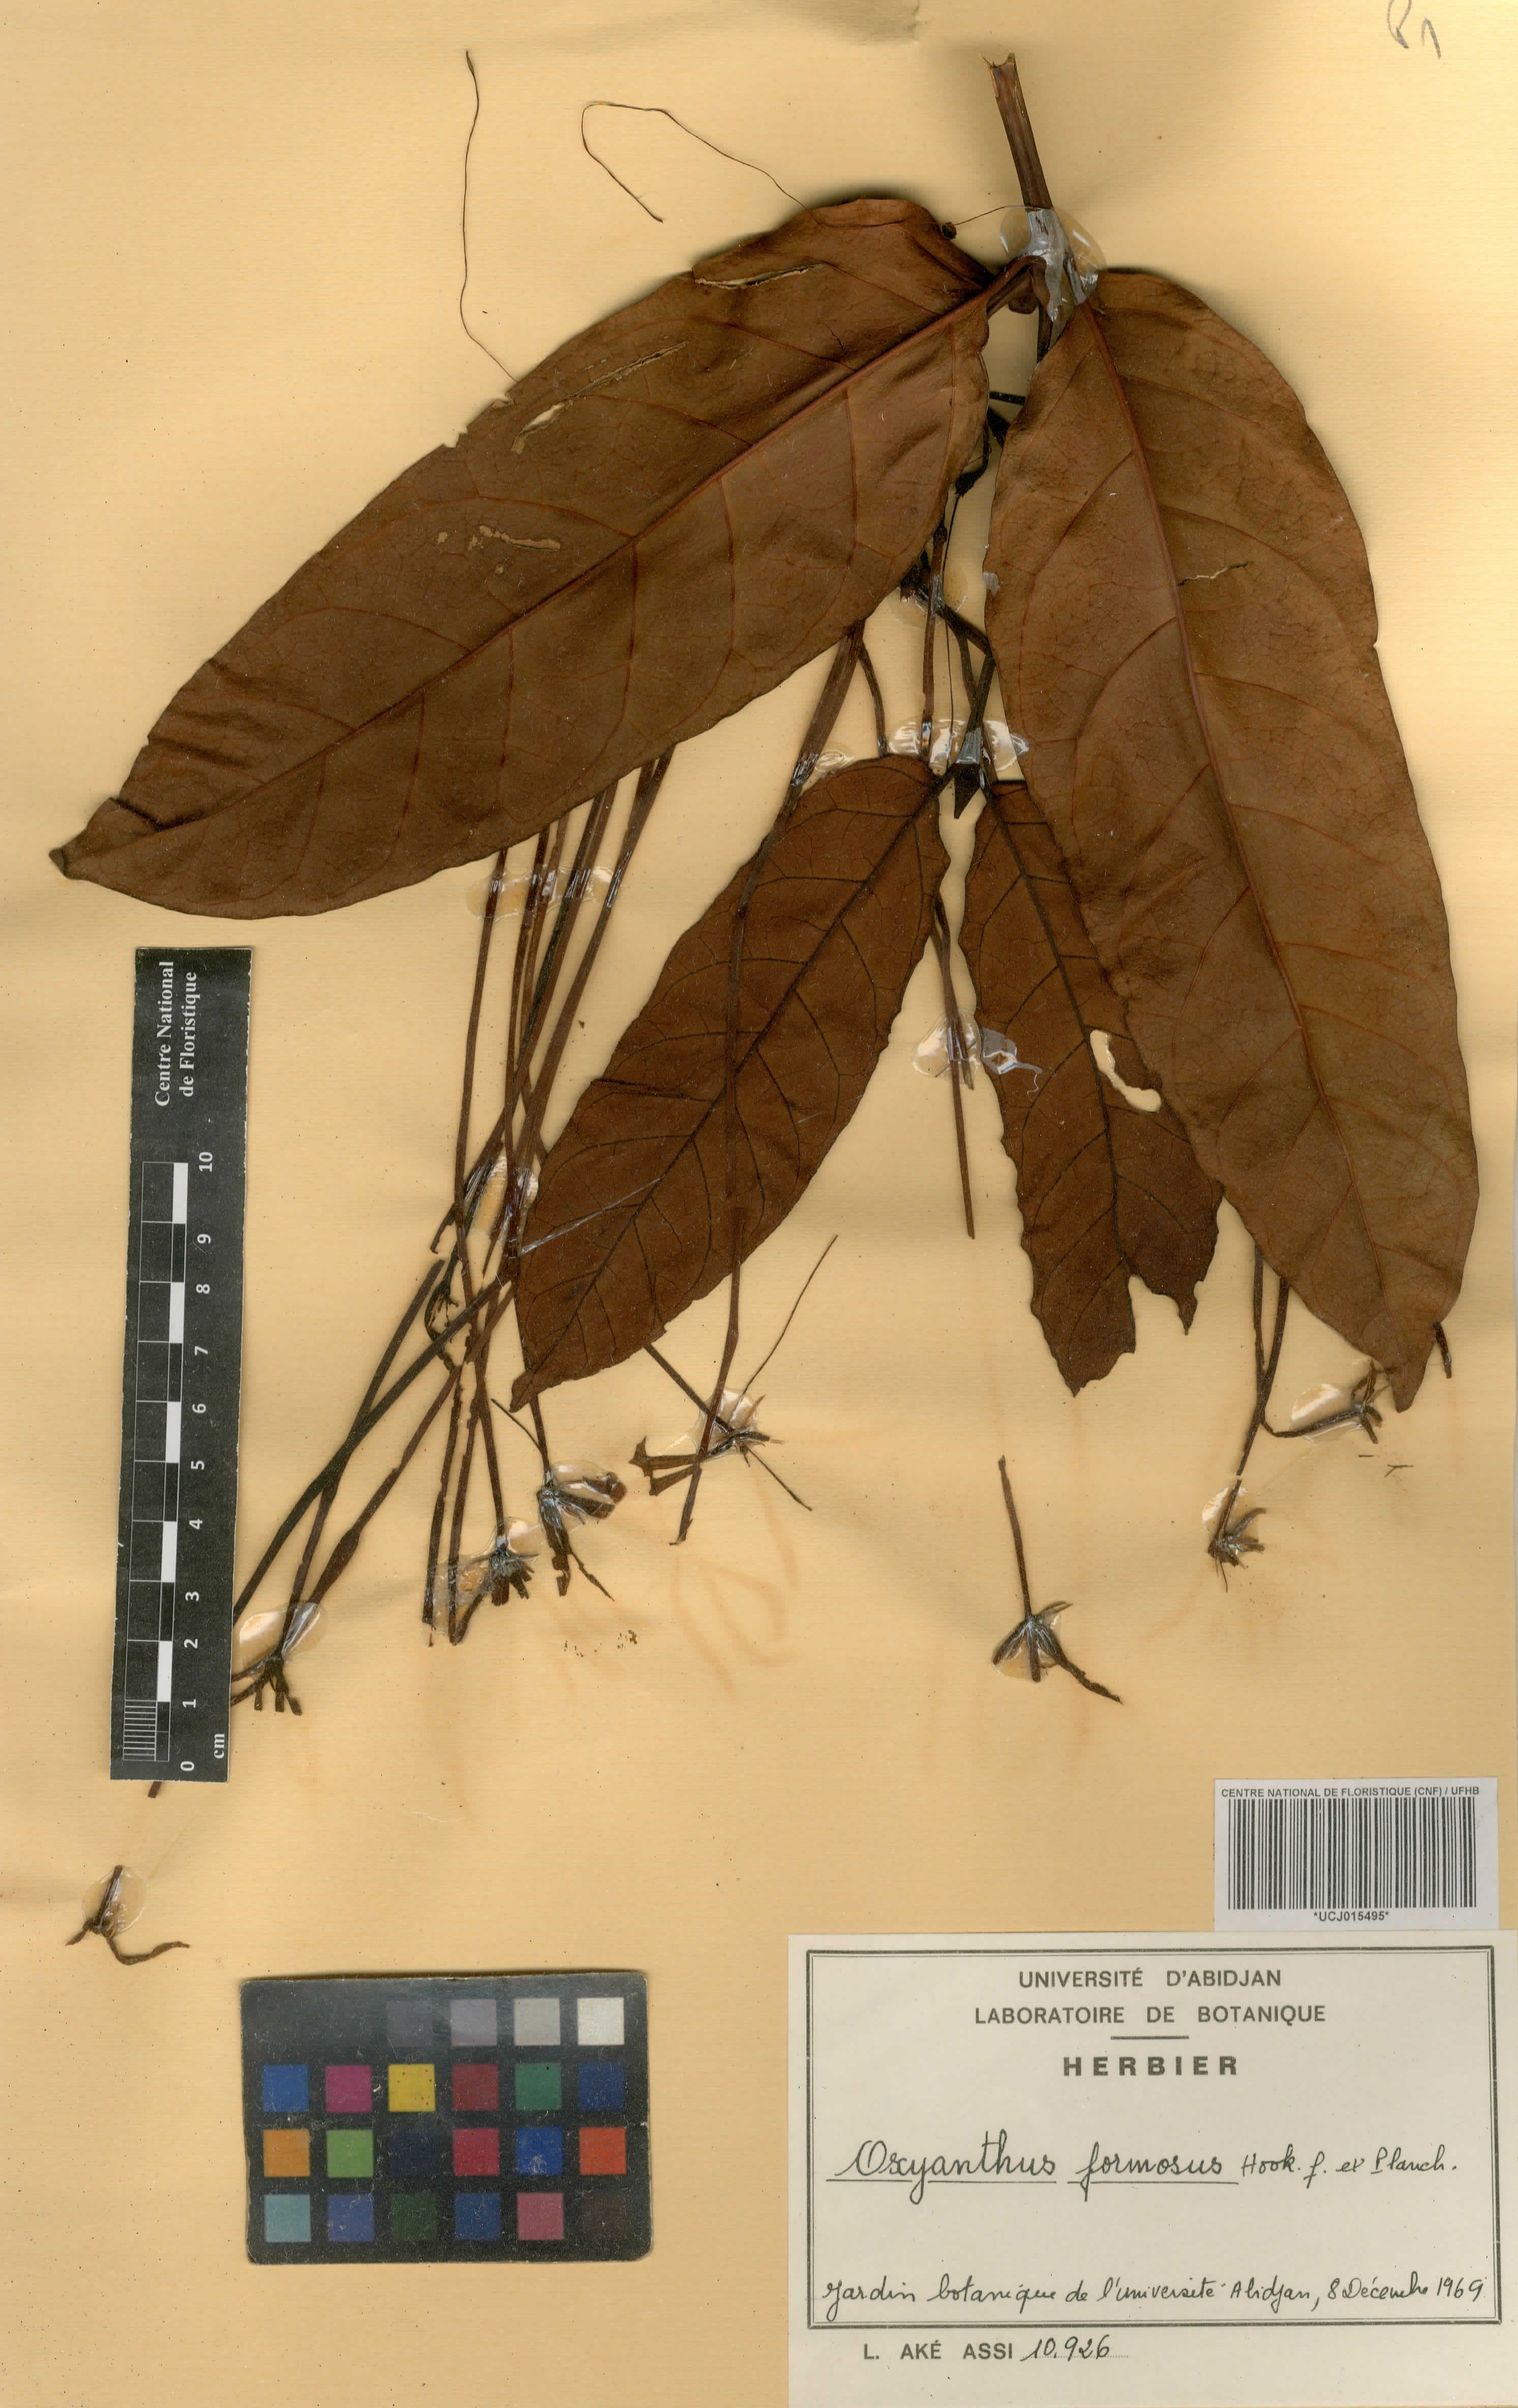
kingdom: Plantae
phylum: Tracheophyta
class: Magnoliopsida
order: Gentianales
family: Rubiaceae
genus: Oxyanthus
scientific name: Oxyanthus formosus
